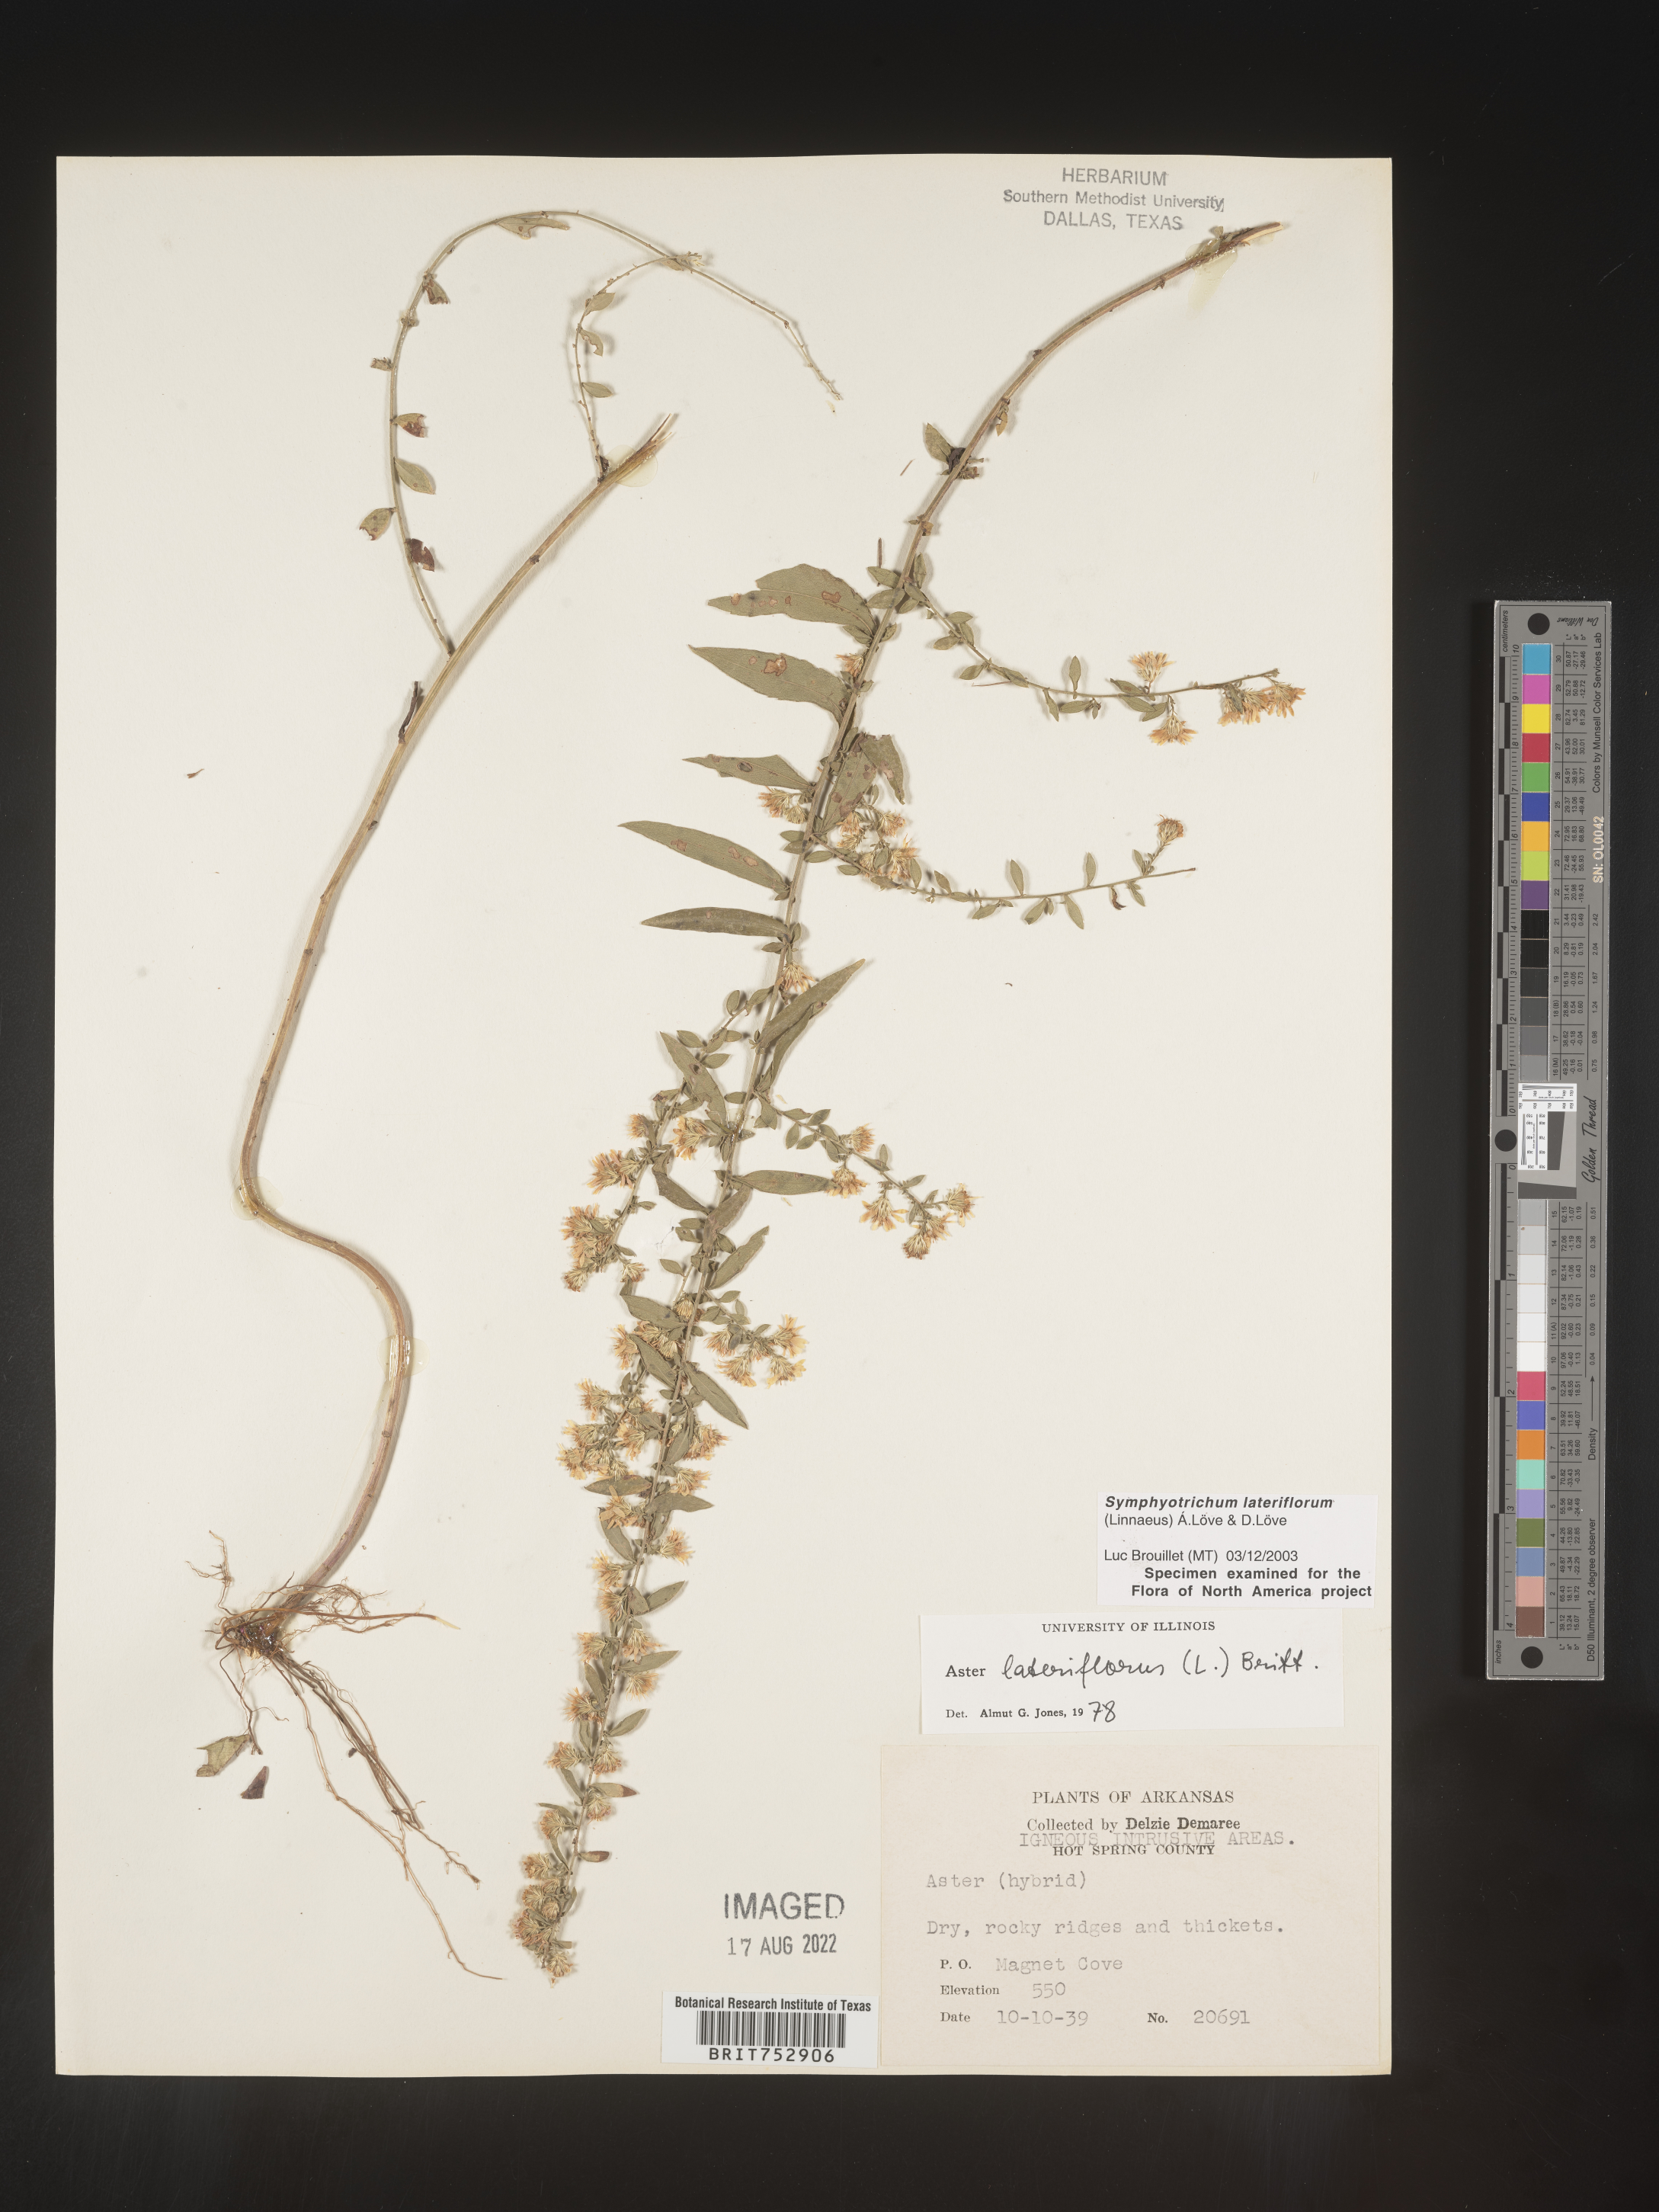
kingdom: Plantae
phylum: Tracheophyta
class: Magnoliopsida
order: Asterales
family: Asteraceae
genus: Symphyotrichum
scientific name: Symphyotrichum lateriflorum
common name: Calico aster
